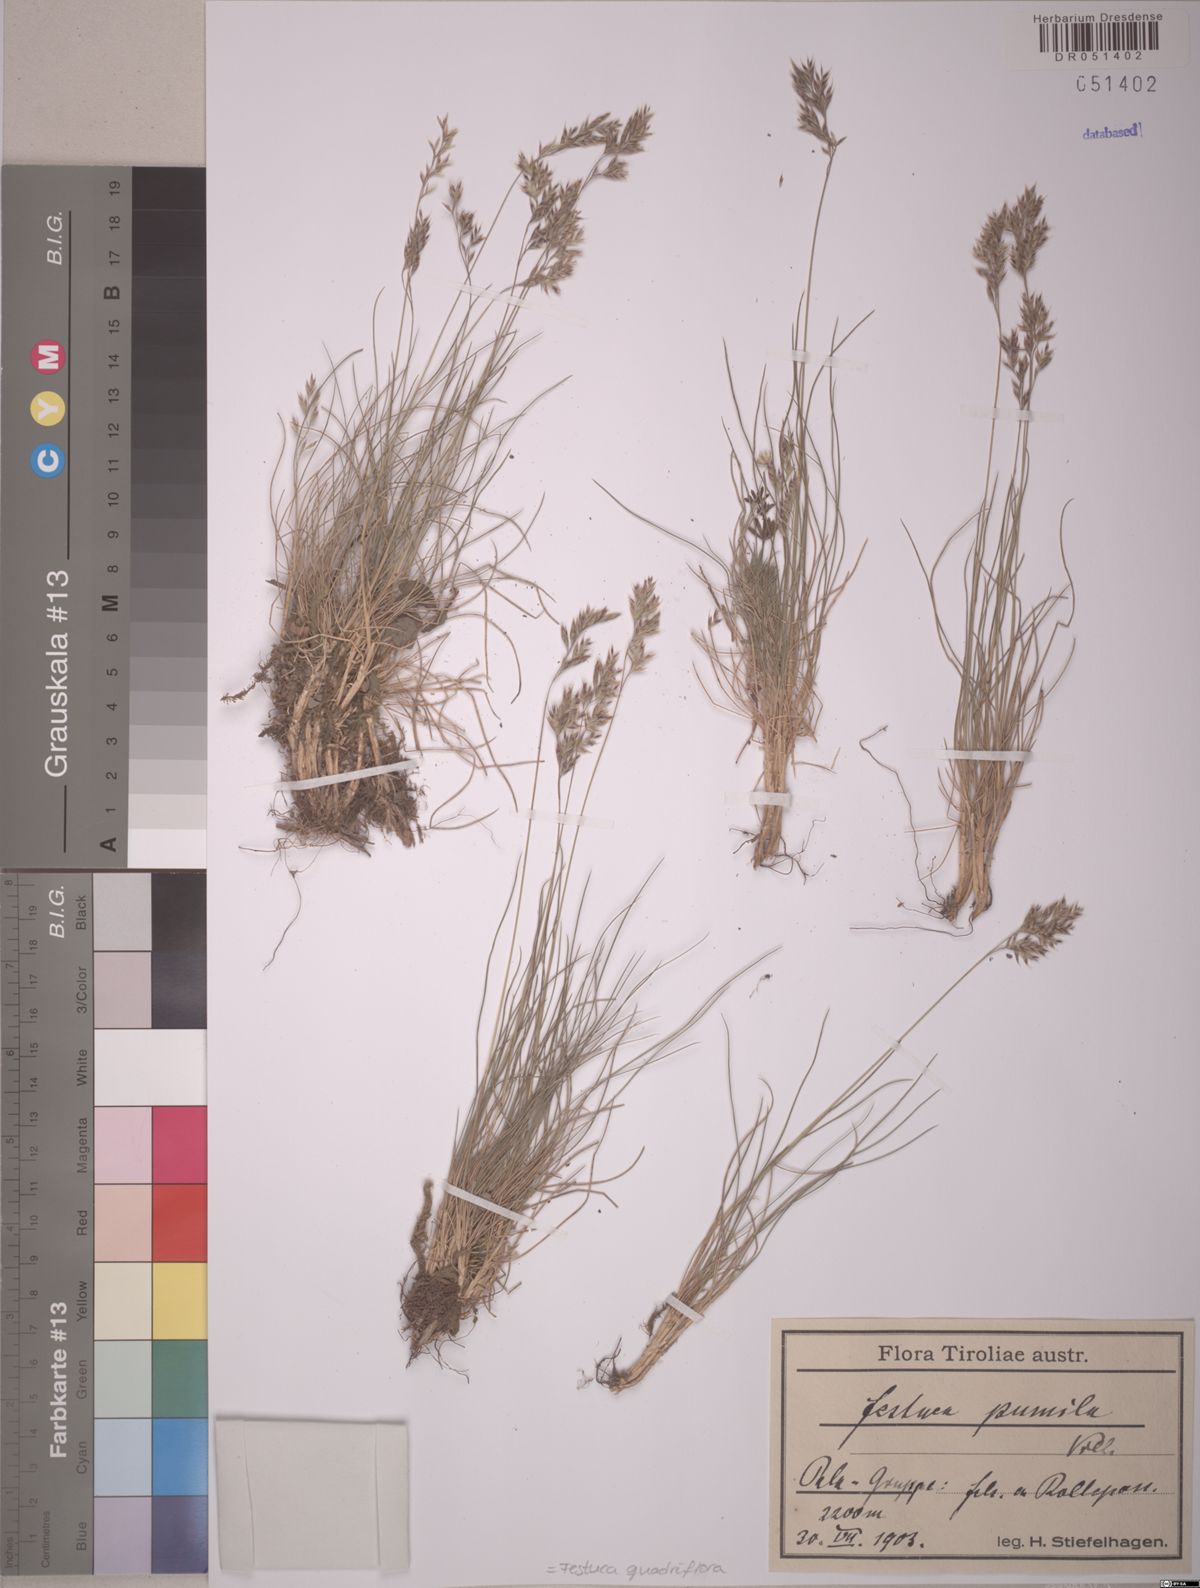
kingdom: Plantae
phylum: Tracheophyta
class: Liliopsida
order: Poales
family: Poaceae
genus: Festuca
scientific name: Festuca quadriflora
